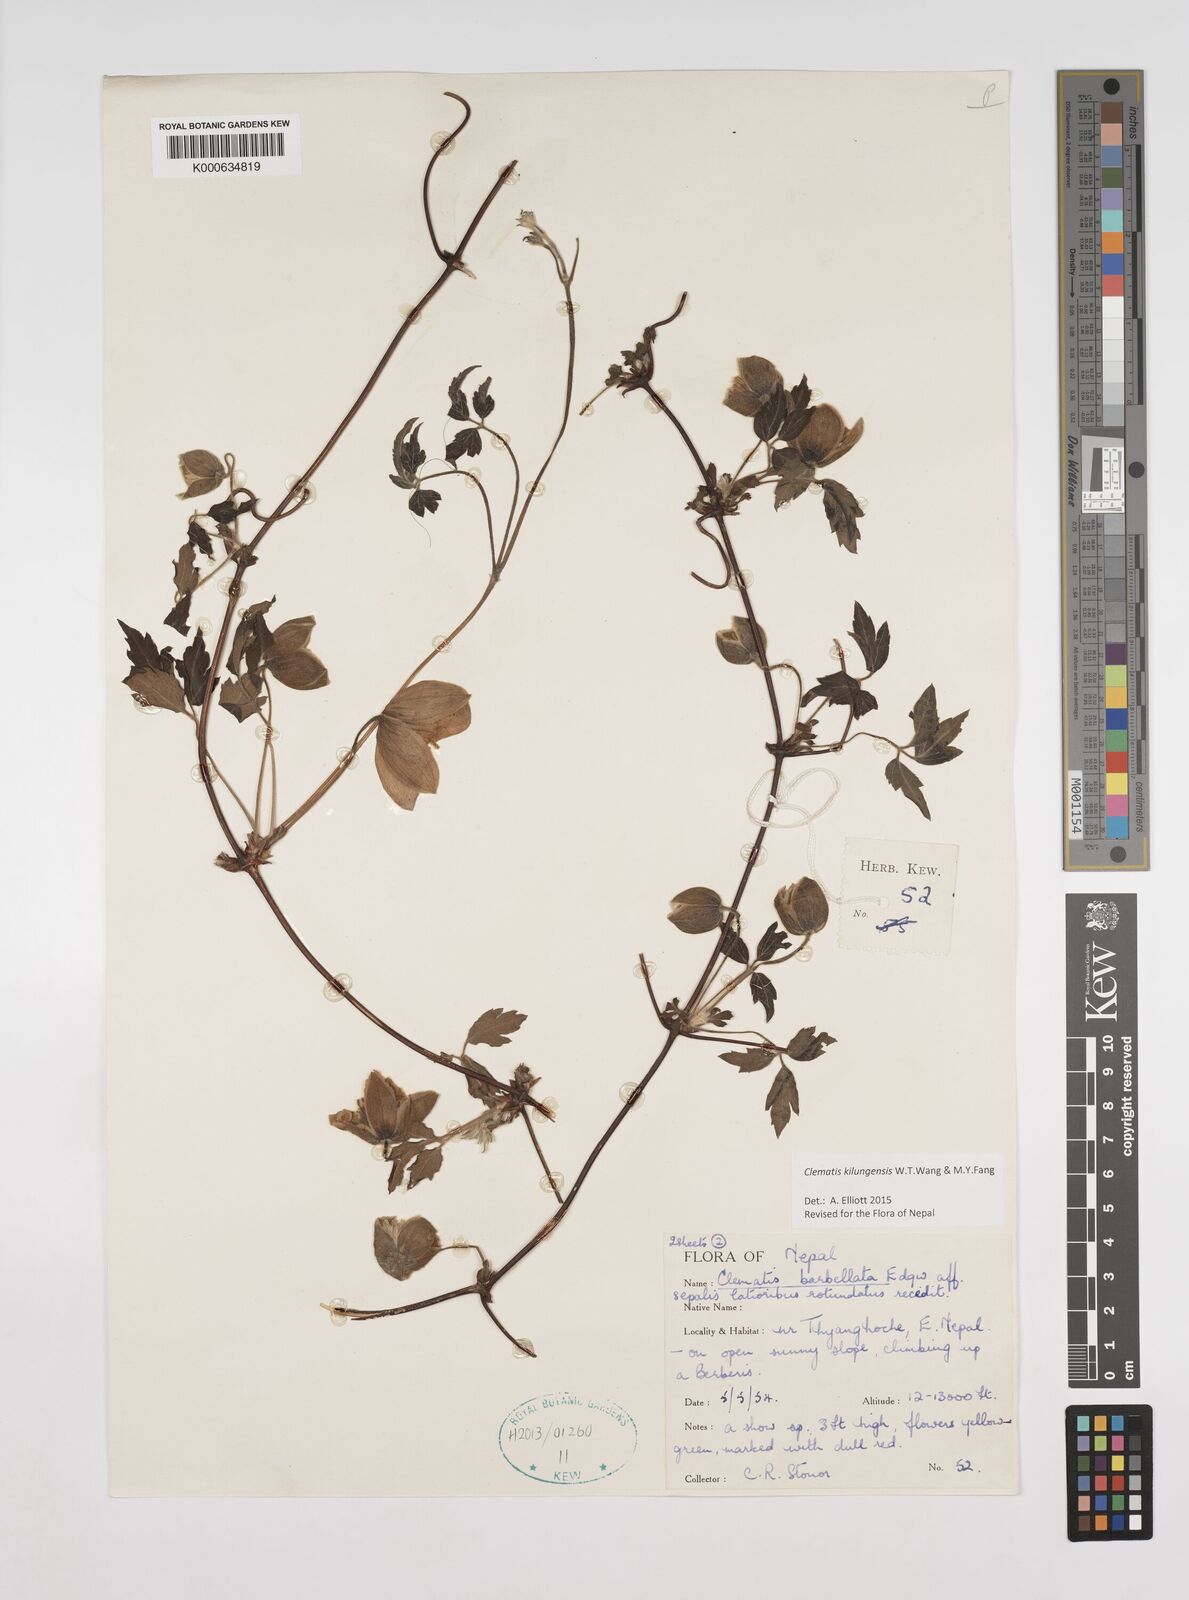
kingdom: Plantae
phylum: Tracheophyta
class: Magnoliopsida
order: Ranunculales
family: Ranunculaceae
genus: Clematis
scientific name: Clematis barbellata
